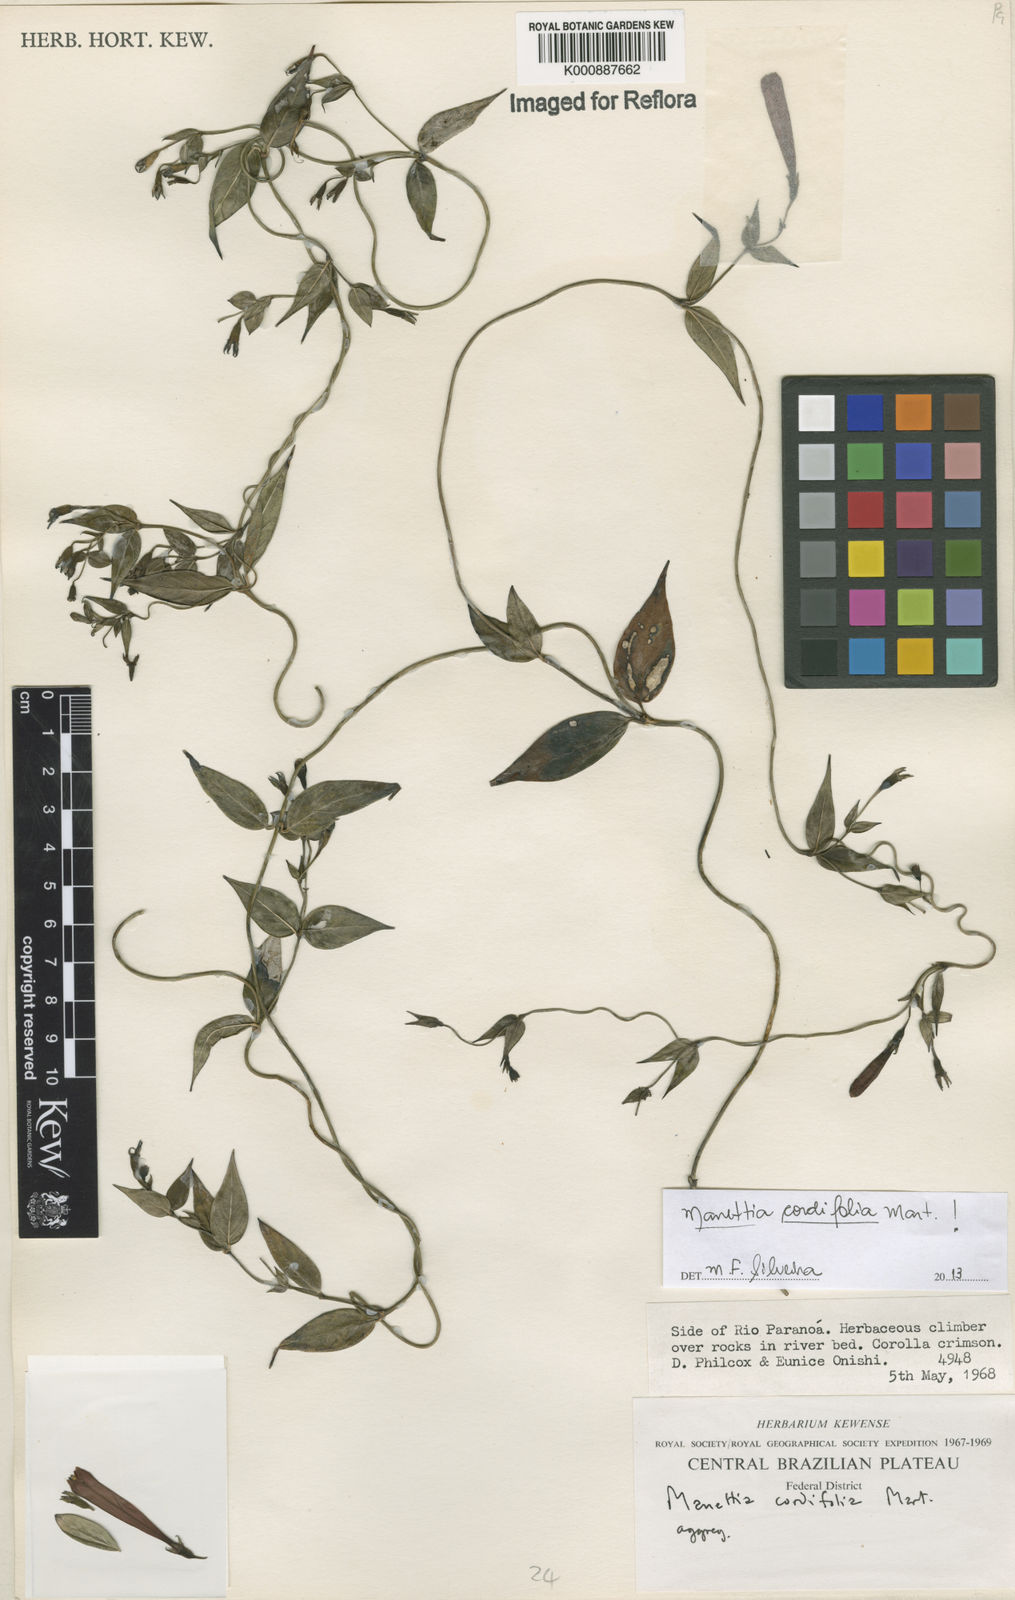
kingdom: Plantae
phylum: Tracheophyta
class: Magnoliopsida
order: Gentianales
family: Rubiaceae
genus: Manettia
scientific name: Manettia cordifolia
